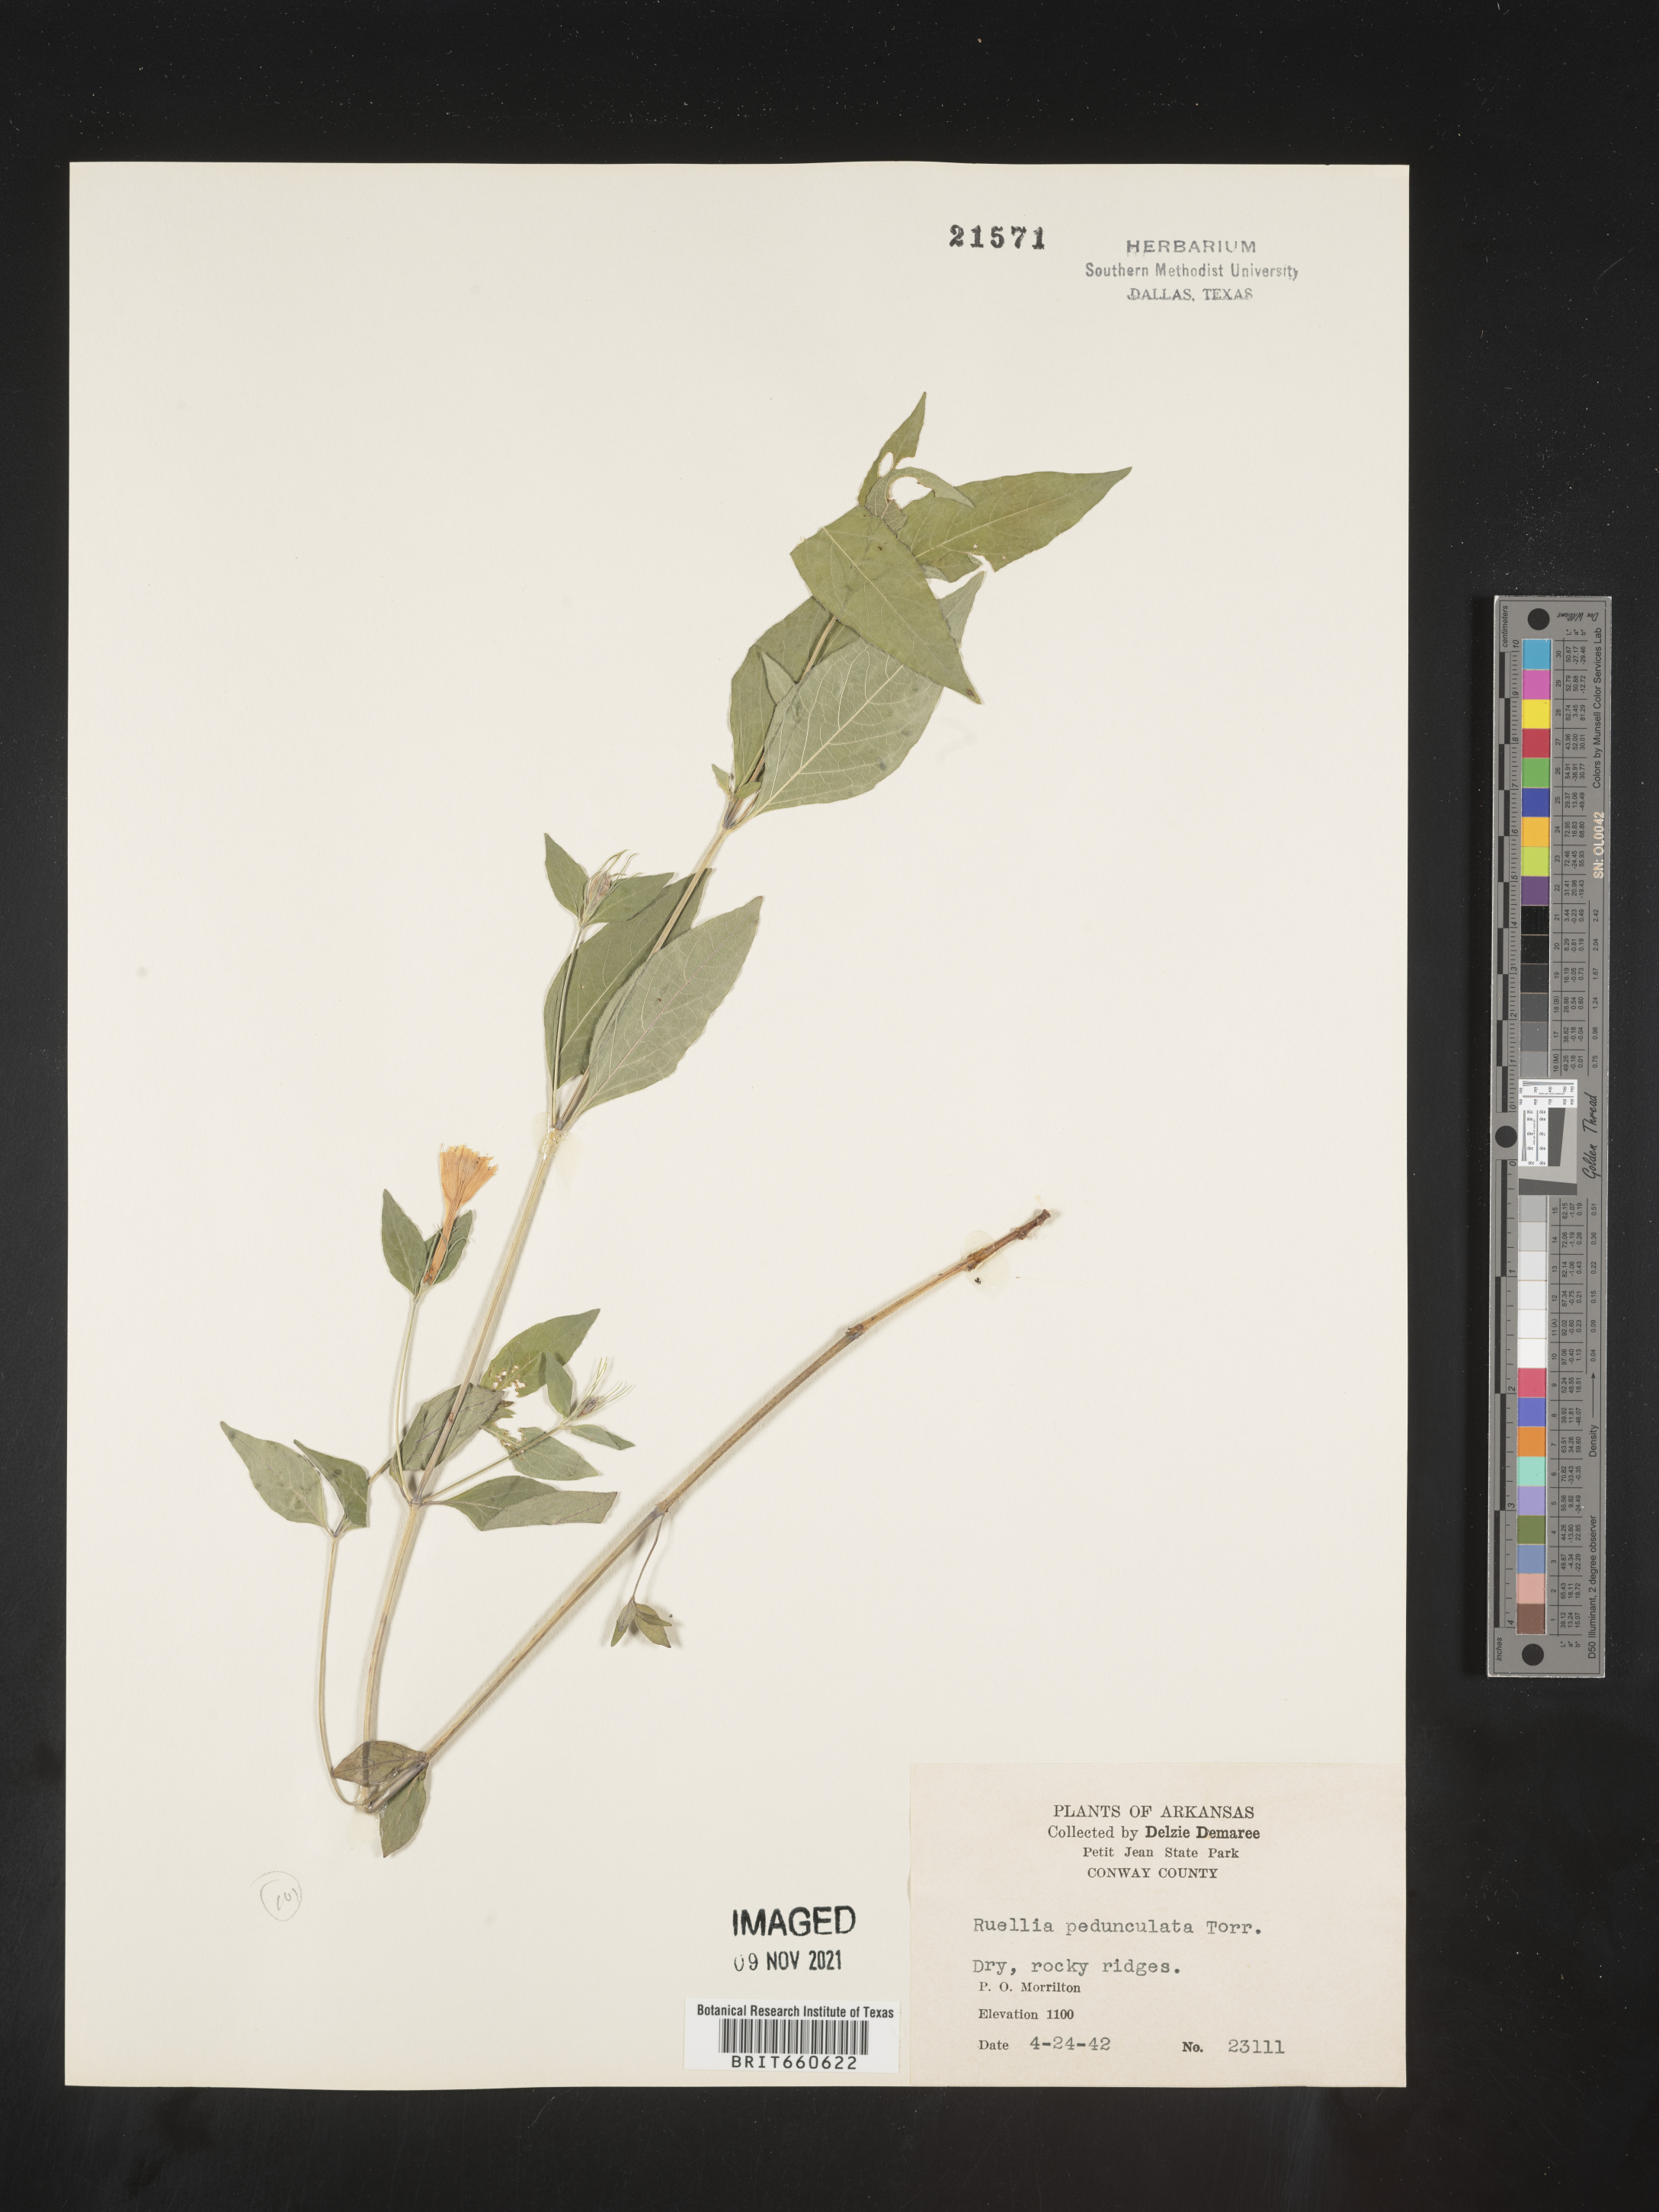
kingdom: Plantae
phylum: Tracheophyta
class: Magnoliopsida
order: Lamiales
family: Acanthaceae
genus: Ruellia
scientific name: Ruellia pedunculata
